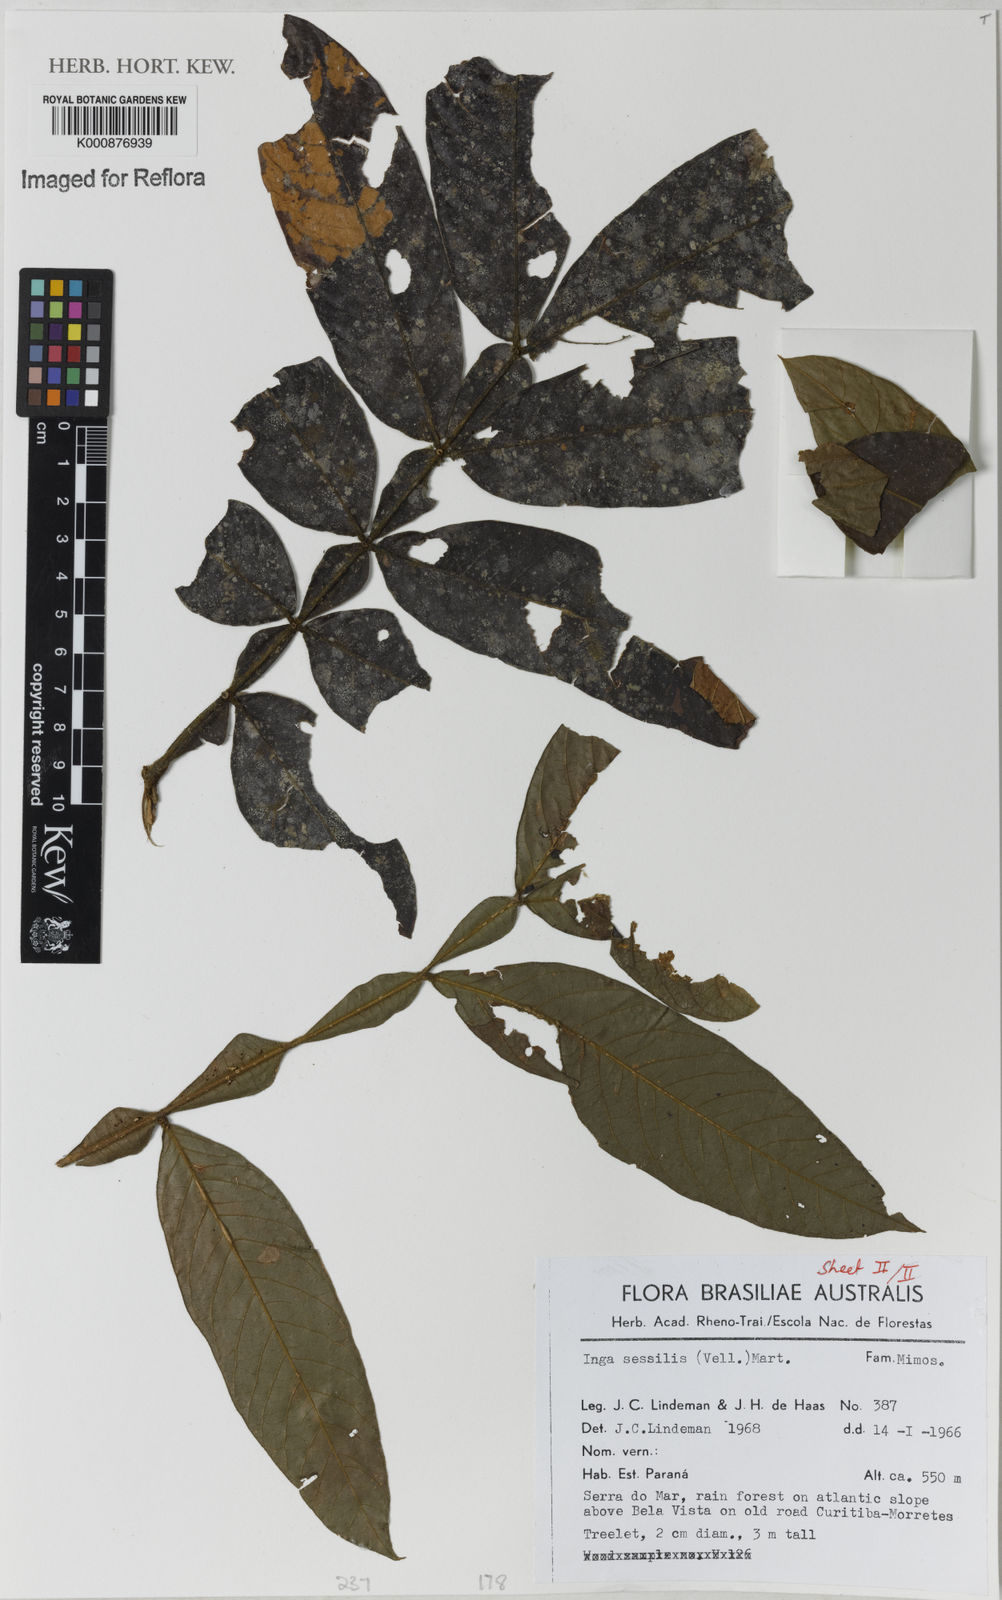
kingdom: Plantae
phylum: Tracheophyta
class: Magnoliopsida
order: Fabales
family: Fabaceae
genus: Inga
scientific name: Inga sessilis
